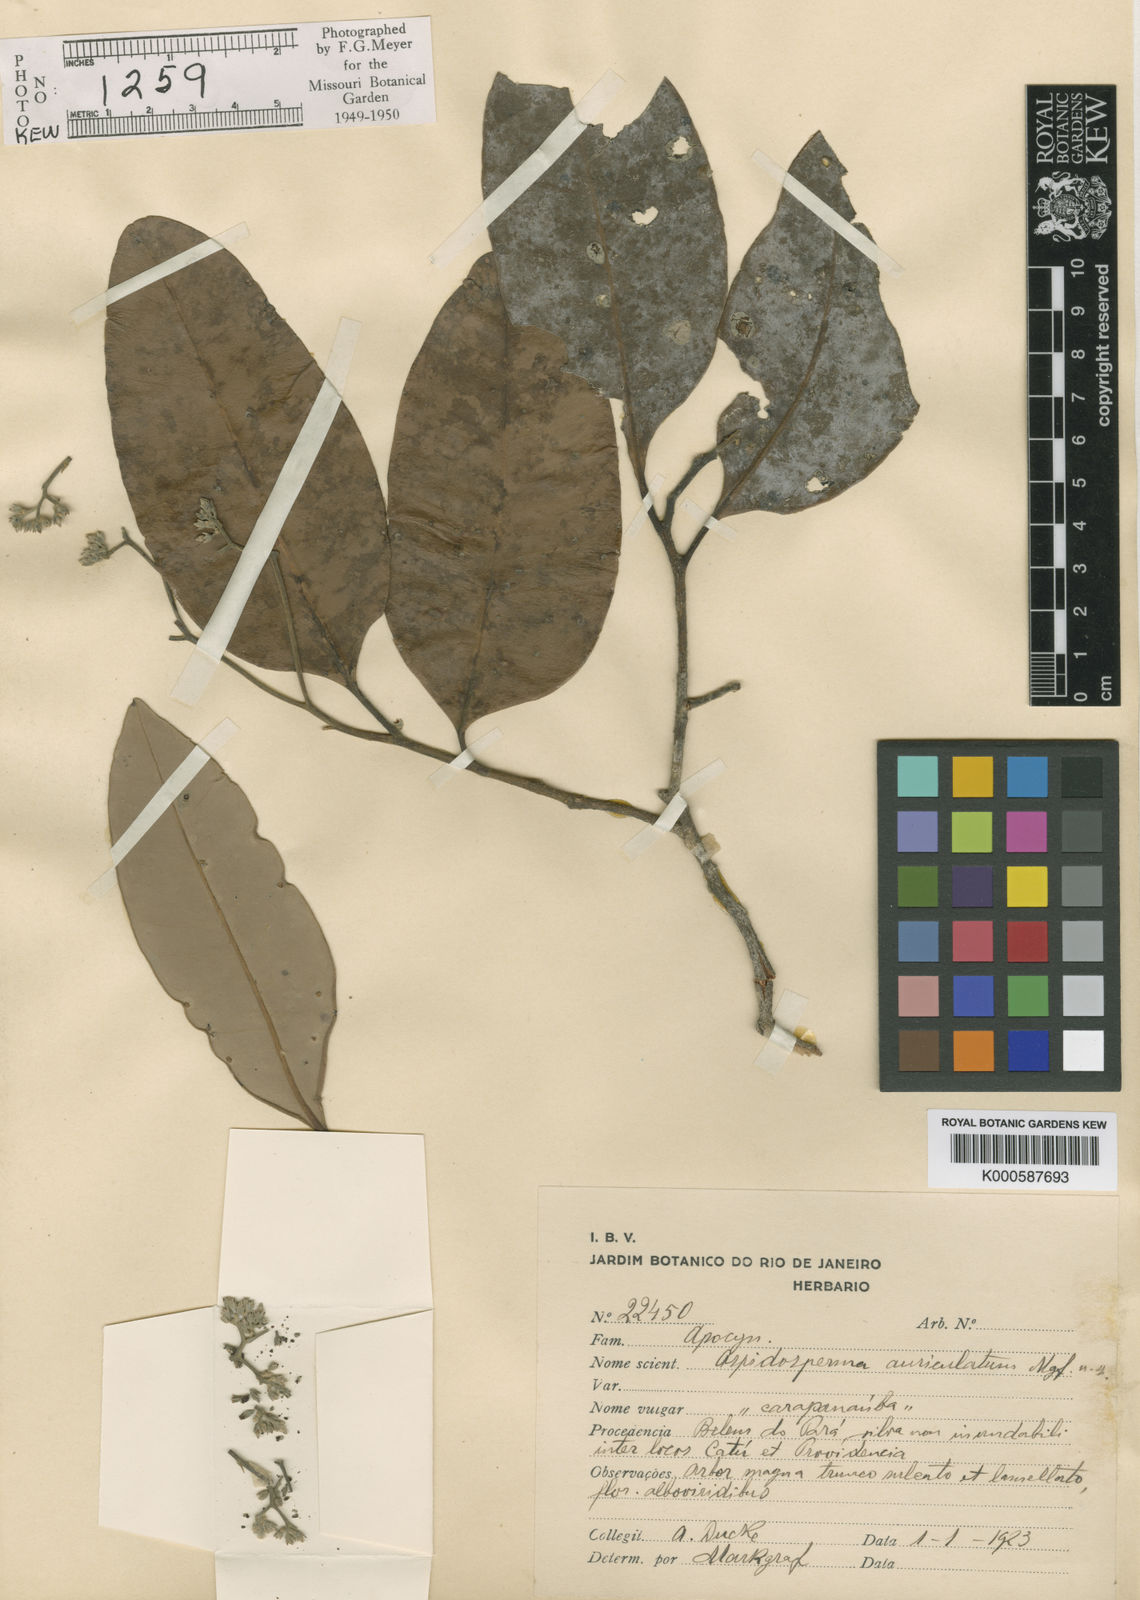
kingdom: Plantae
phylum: Tracheophyta
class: Magnoliopsida
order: Gentianales
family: Apocynaceae
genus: Aspidosperma
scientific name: Aspidosperma auriculatum
